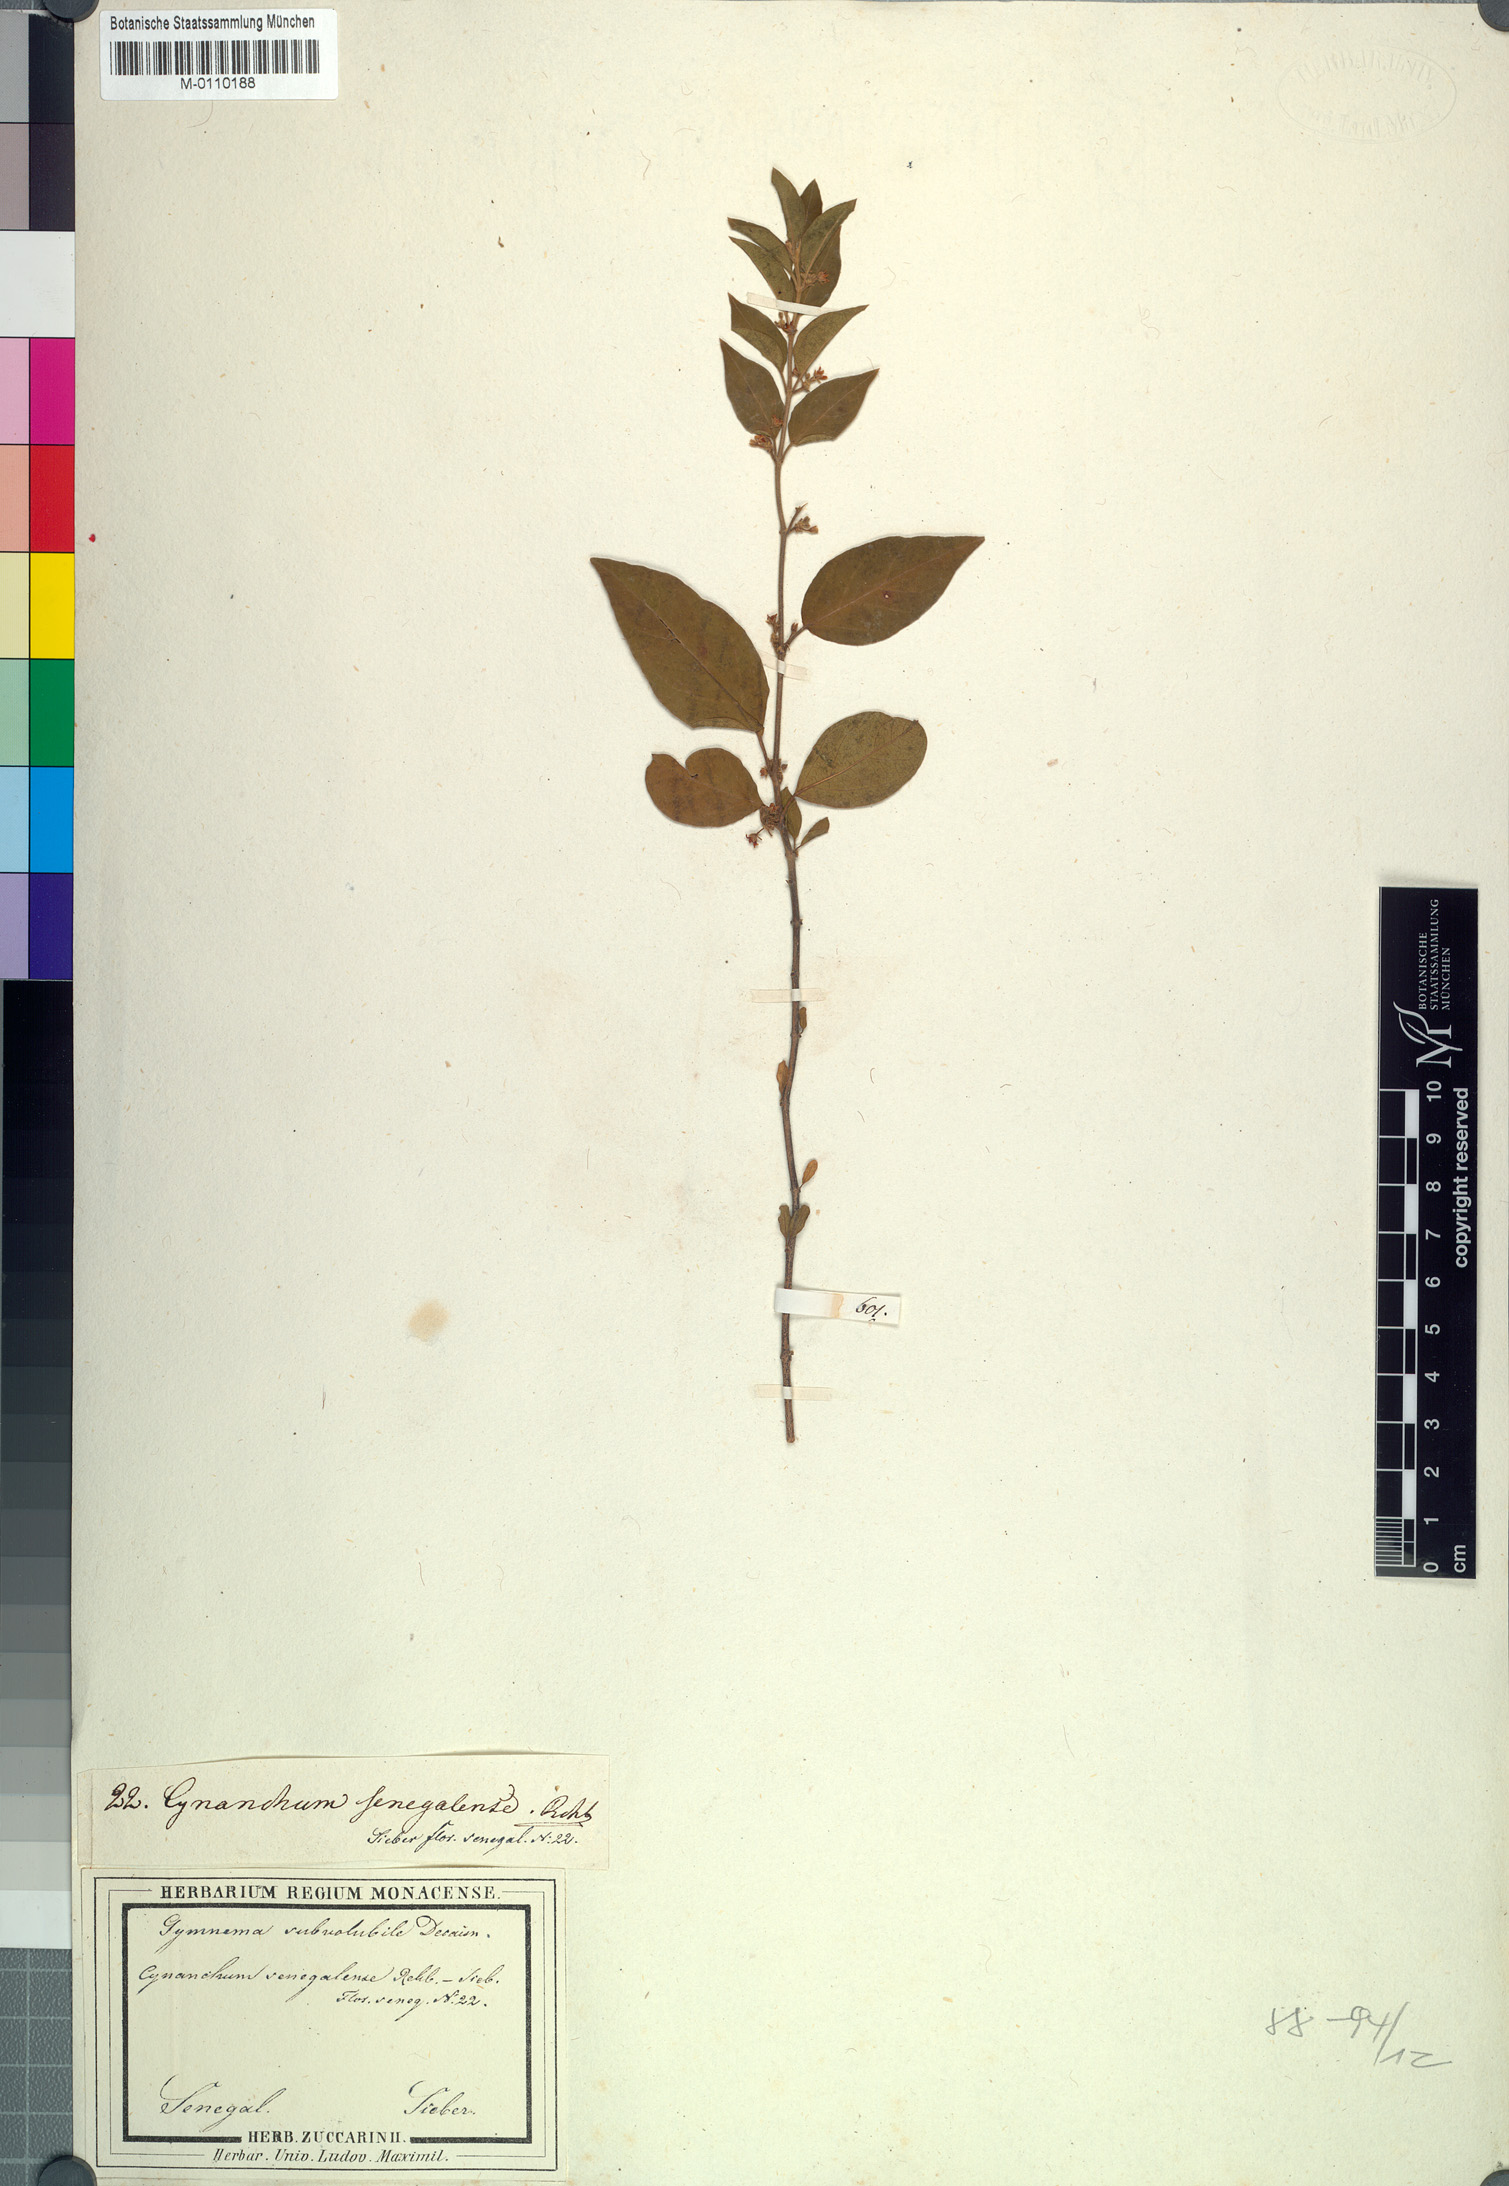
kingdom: Plantae
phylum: Tracheophyta
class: Magnoliopsida
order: Gentianales
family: Apocynaceae
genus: Gymnema
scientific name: Gymnema sylvestre
